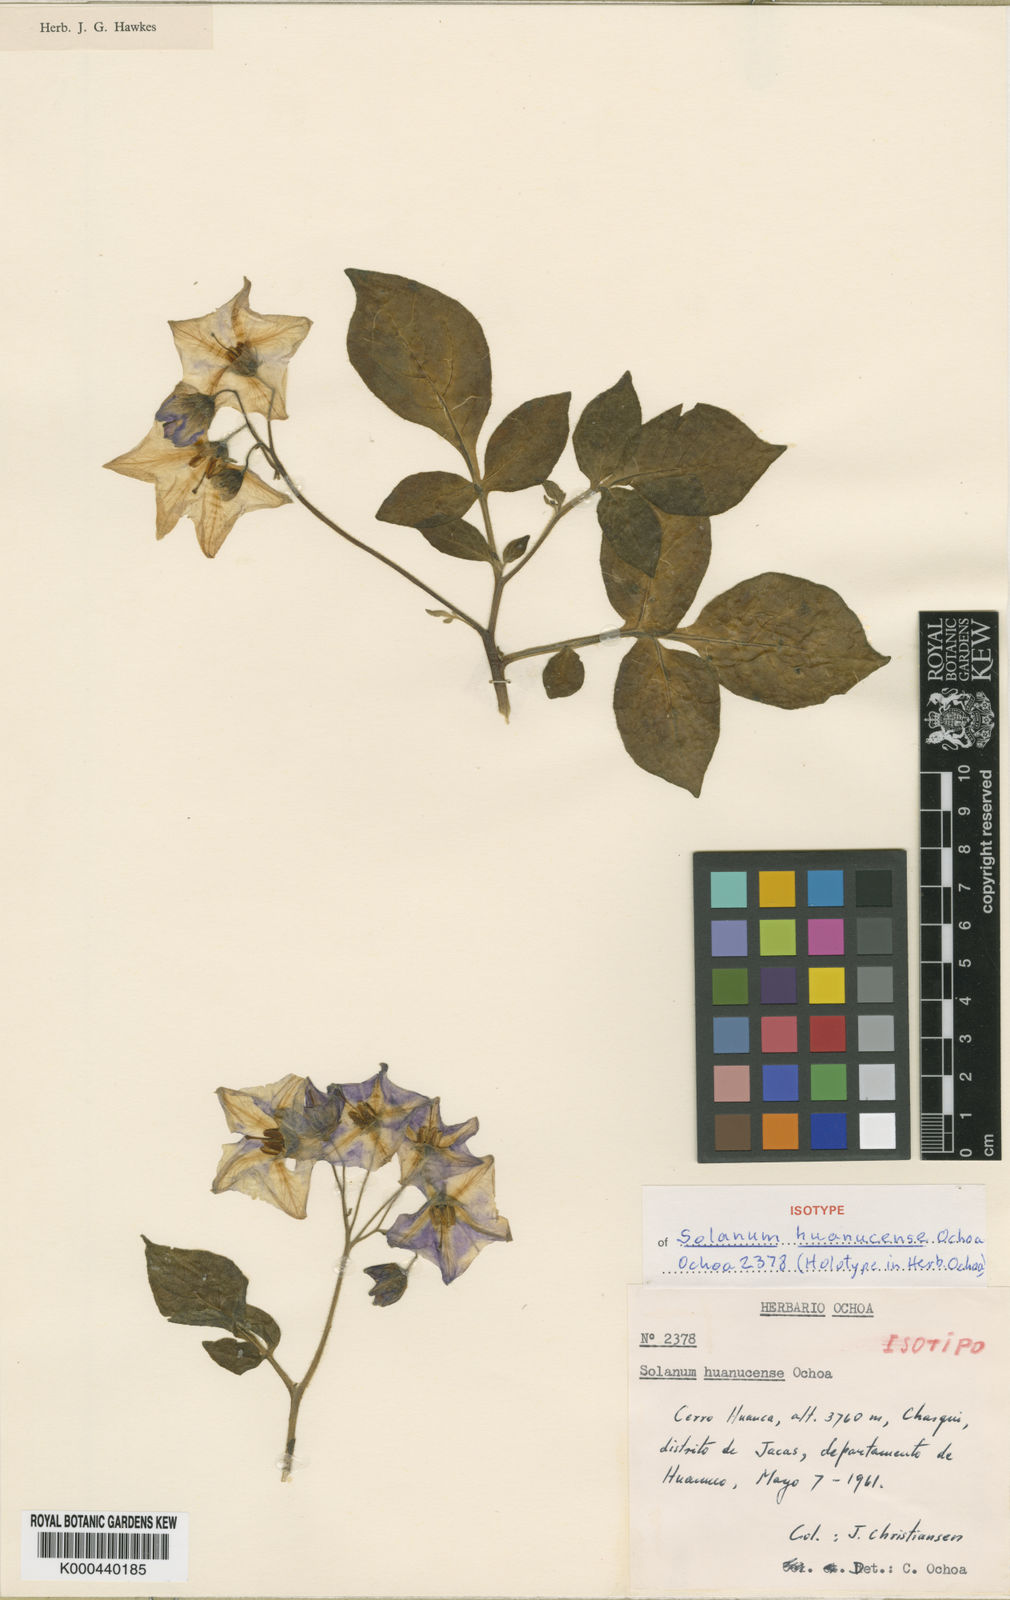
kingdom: Plantae
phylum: Tracheophyta
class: Magnoliopsida
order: Solanales
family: Solanaceae
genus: Solanum
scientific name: Solanum dolichocremastrum
